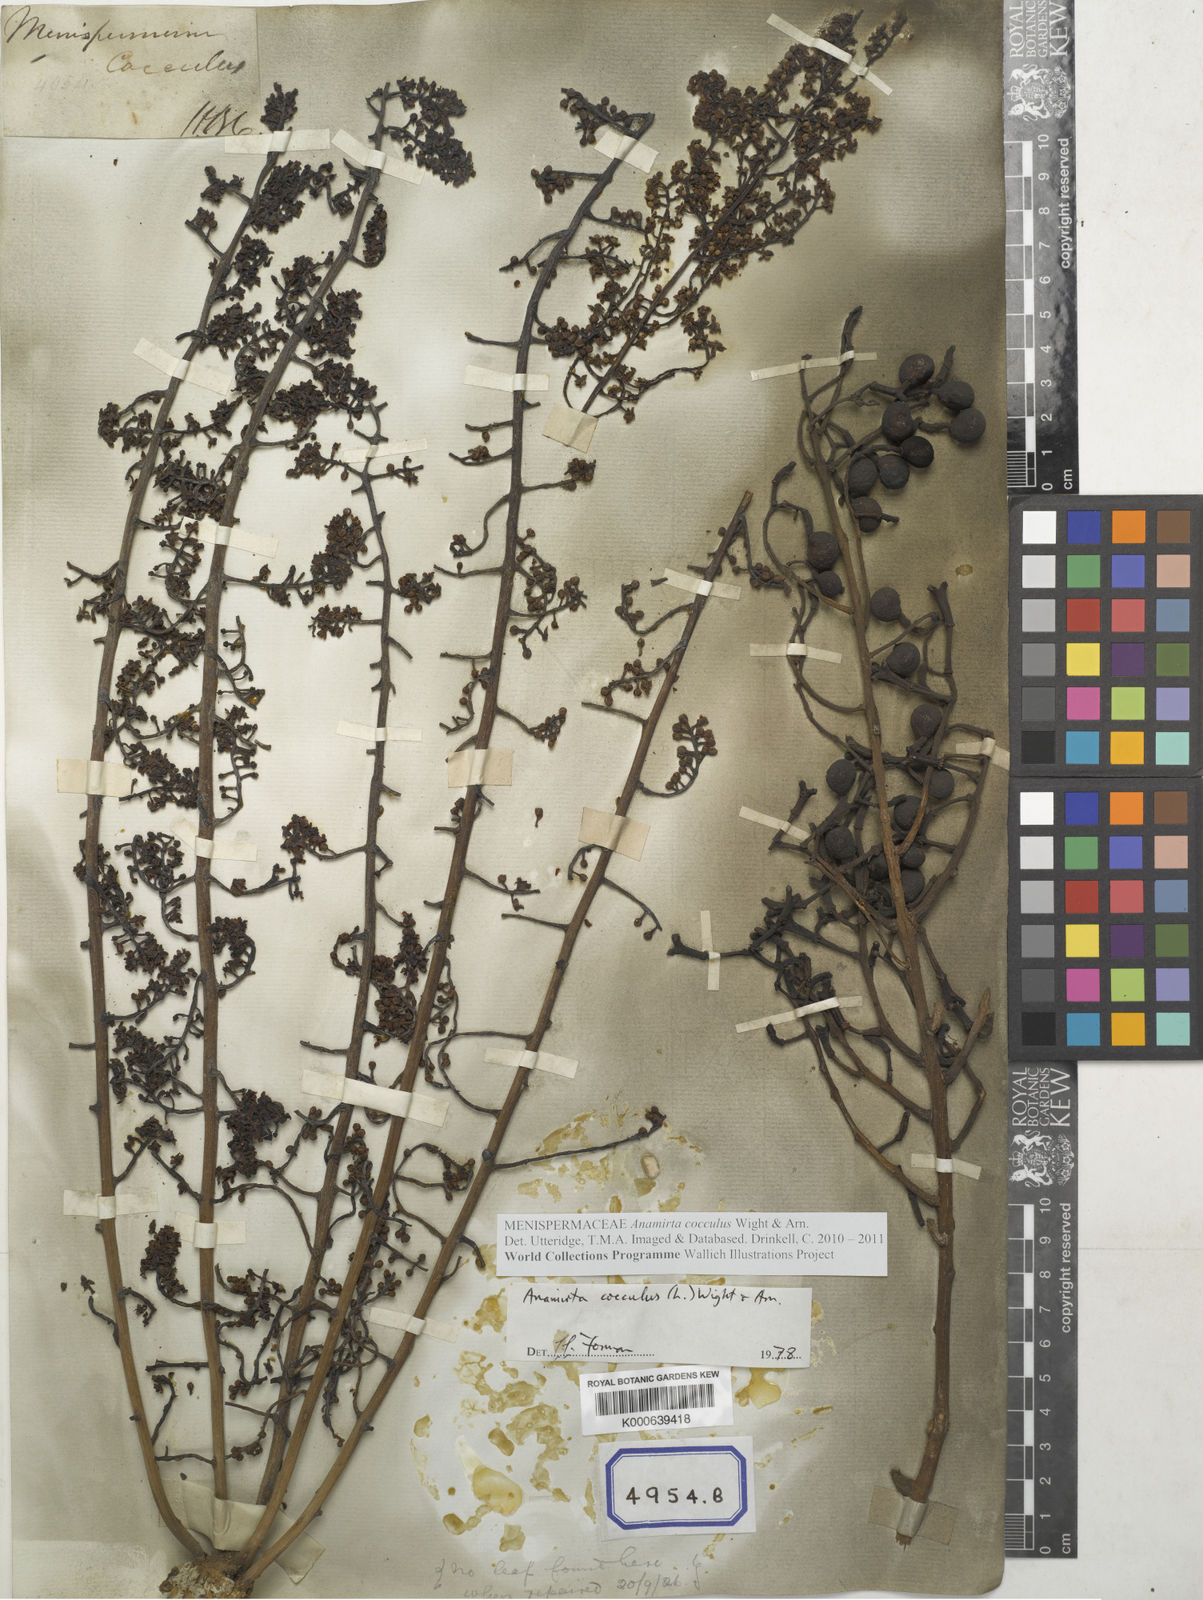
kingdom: Plantae
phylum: Tracheophyta
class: Magnoliopsida
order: Ranunculales
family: Menispermaceae
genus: Cocculus
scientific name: Cocculus
